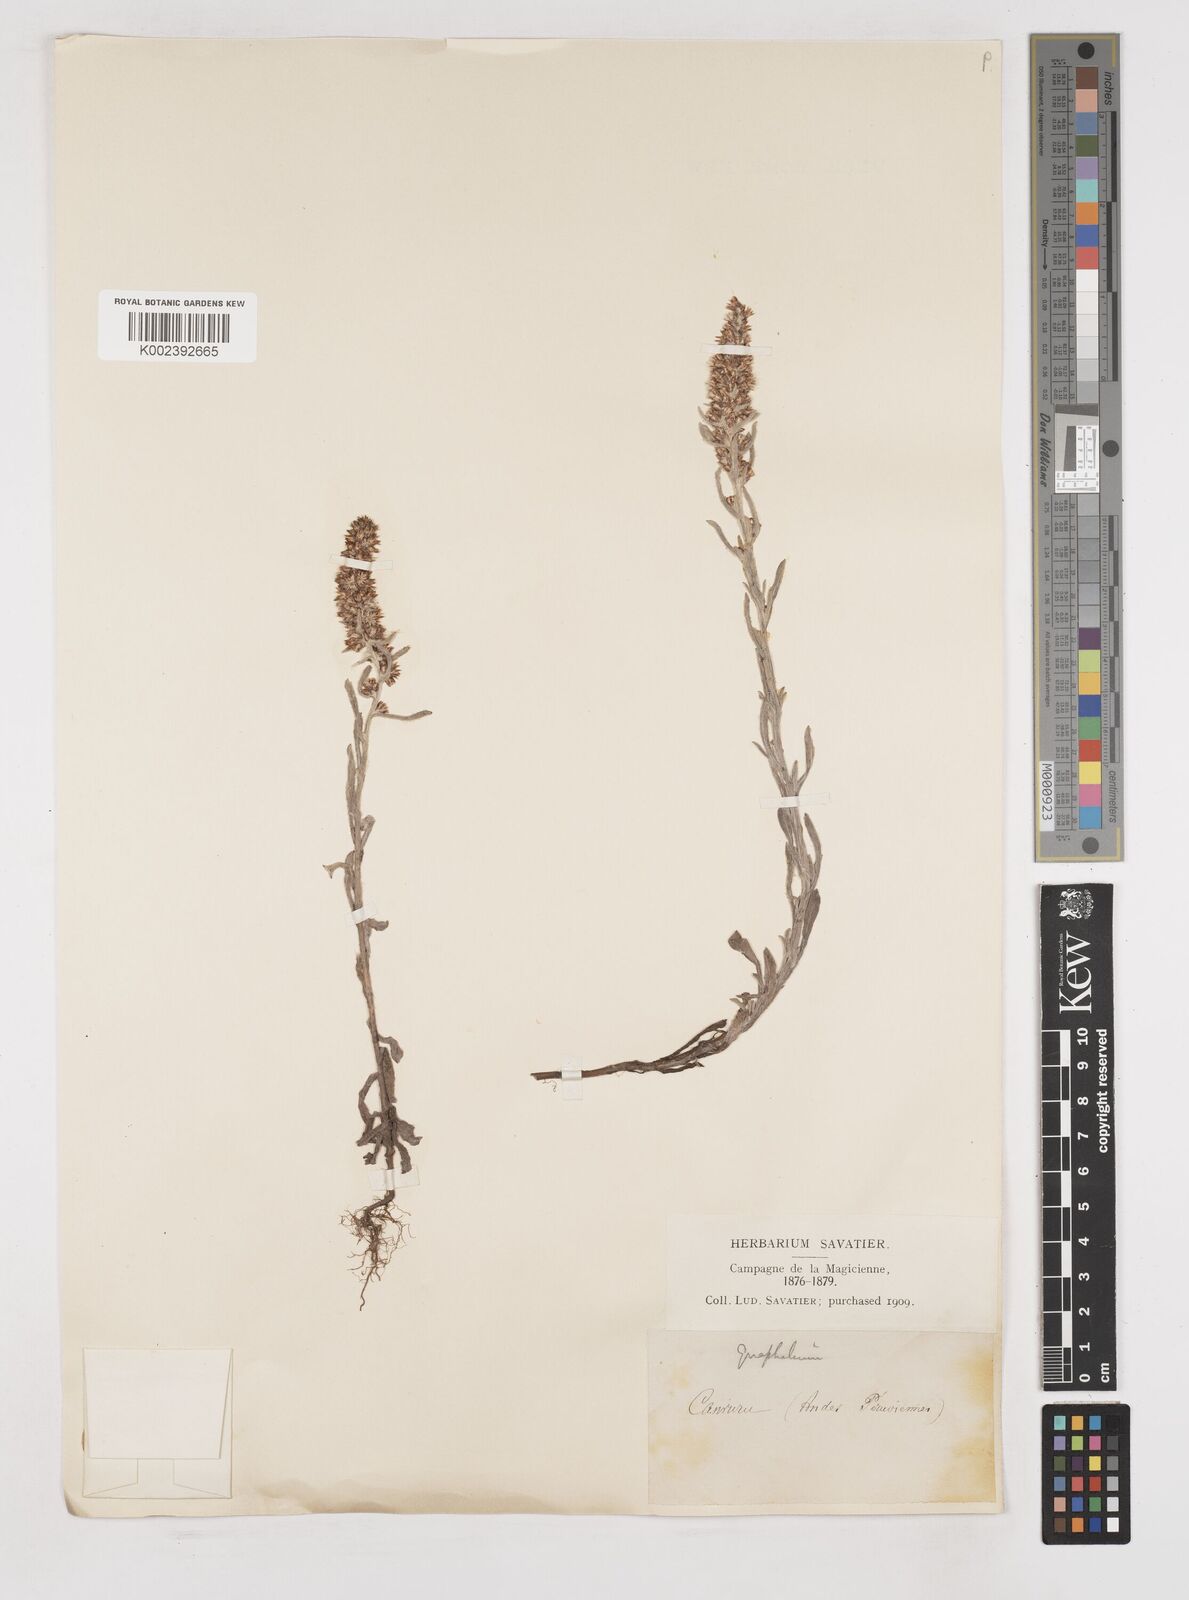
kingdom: Plantae
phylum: Tracheophyta
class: Magnoliopsida
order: Asterales
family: Asteraceae
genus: Gnaphalium
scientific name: Gnaphalium
